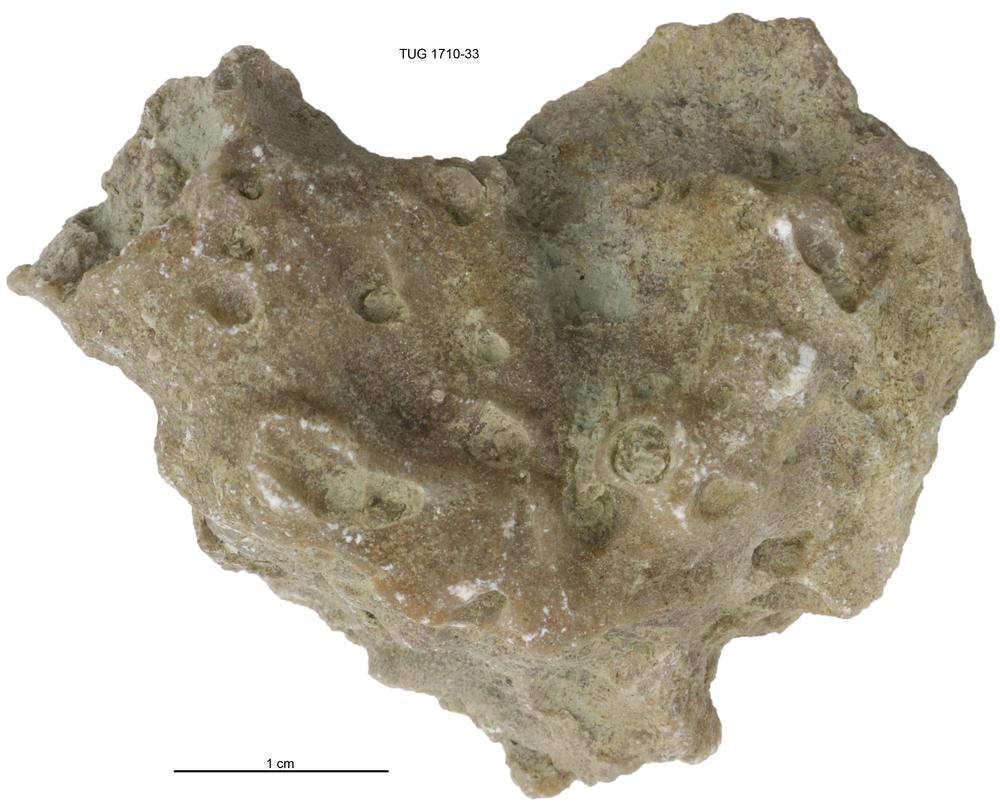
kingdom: Animalia
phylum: Bryozoa
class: Stenolaemata
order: Cystoporida
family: Fistuliporidae
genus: Fistulipora
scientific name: Fistulipora przhidolensis
